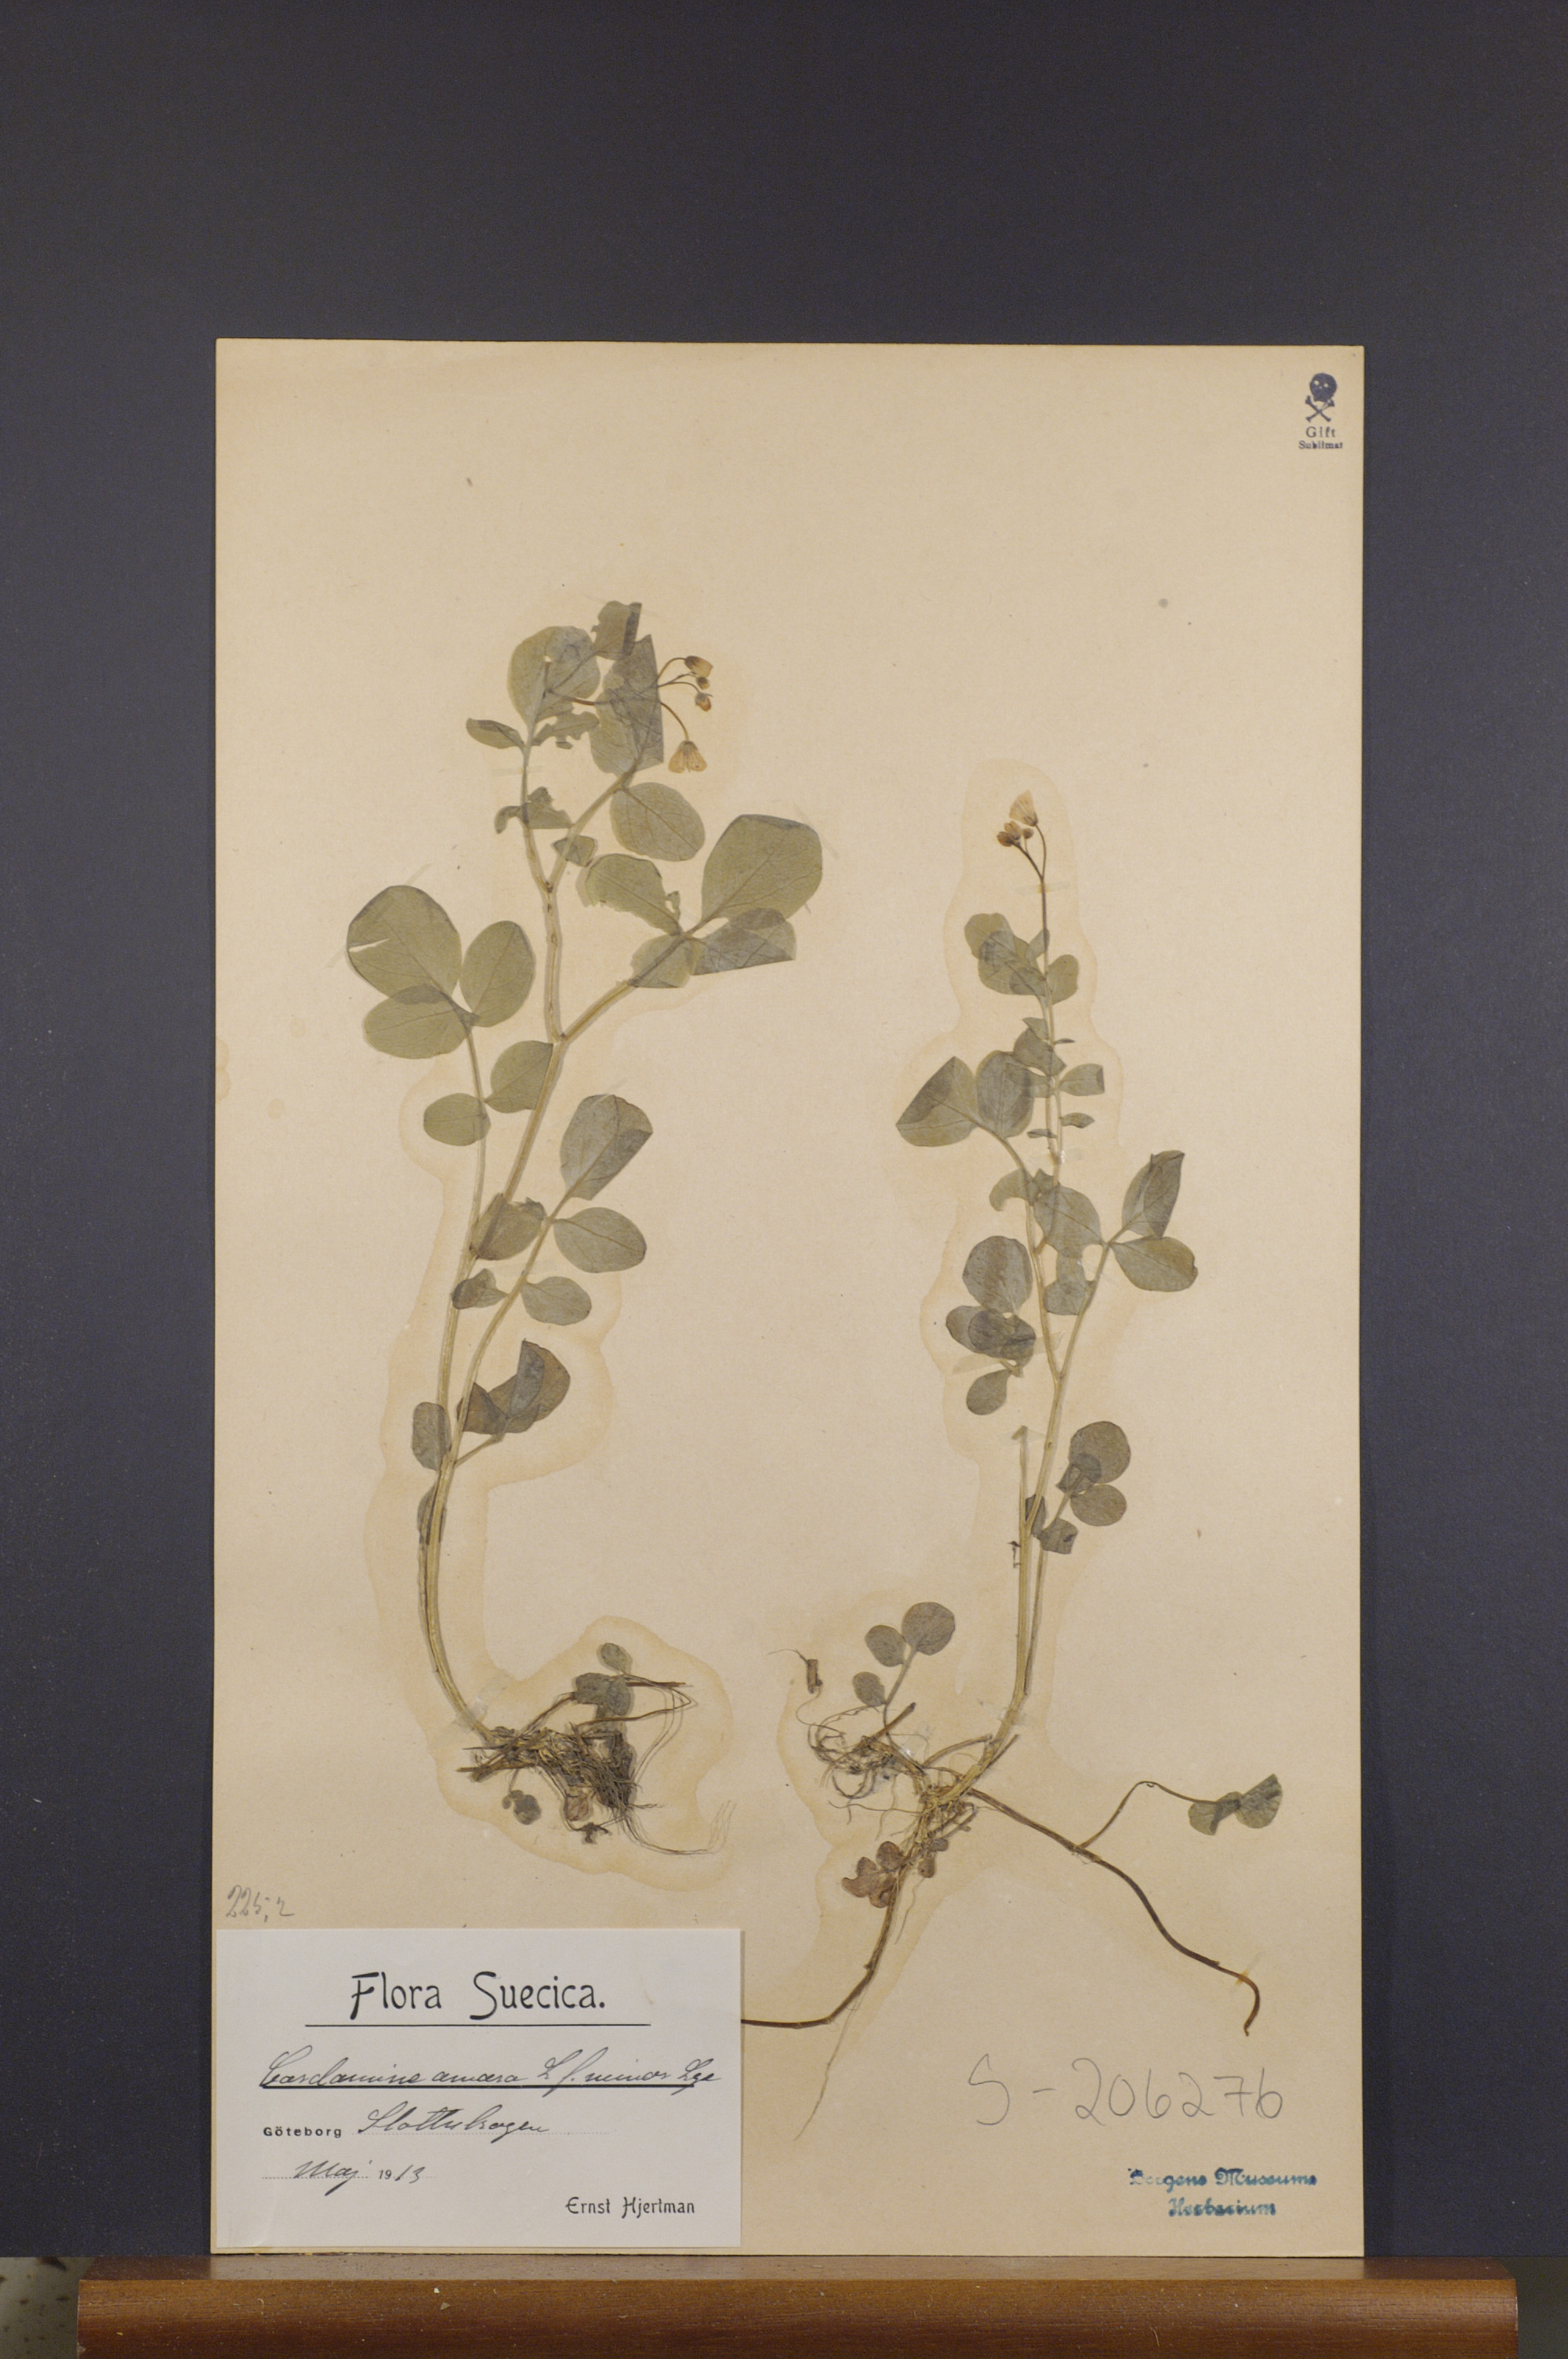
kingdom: Plantae
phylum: Tracheophyta
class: Magnoliopsida
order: Brassicales
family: Brassicaceae
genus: Cardamine
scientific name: Cardamine amara
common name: Large bitter-cress
